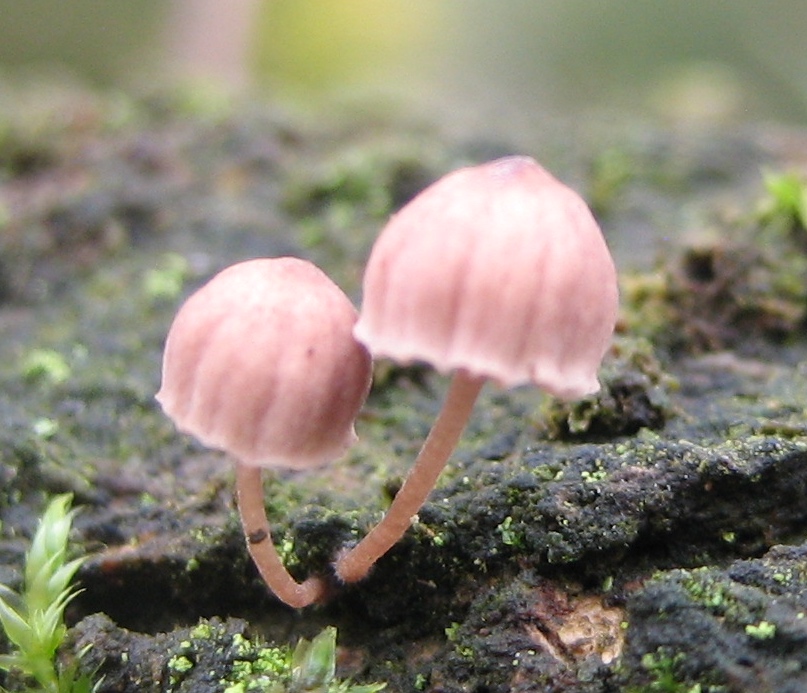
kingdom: Fungi
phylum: Basidiomycota
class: Agaricomycetes
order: Agaricales
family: Mycenaceae
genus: Mycena
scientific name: Mycena meliigena
